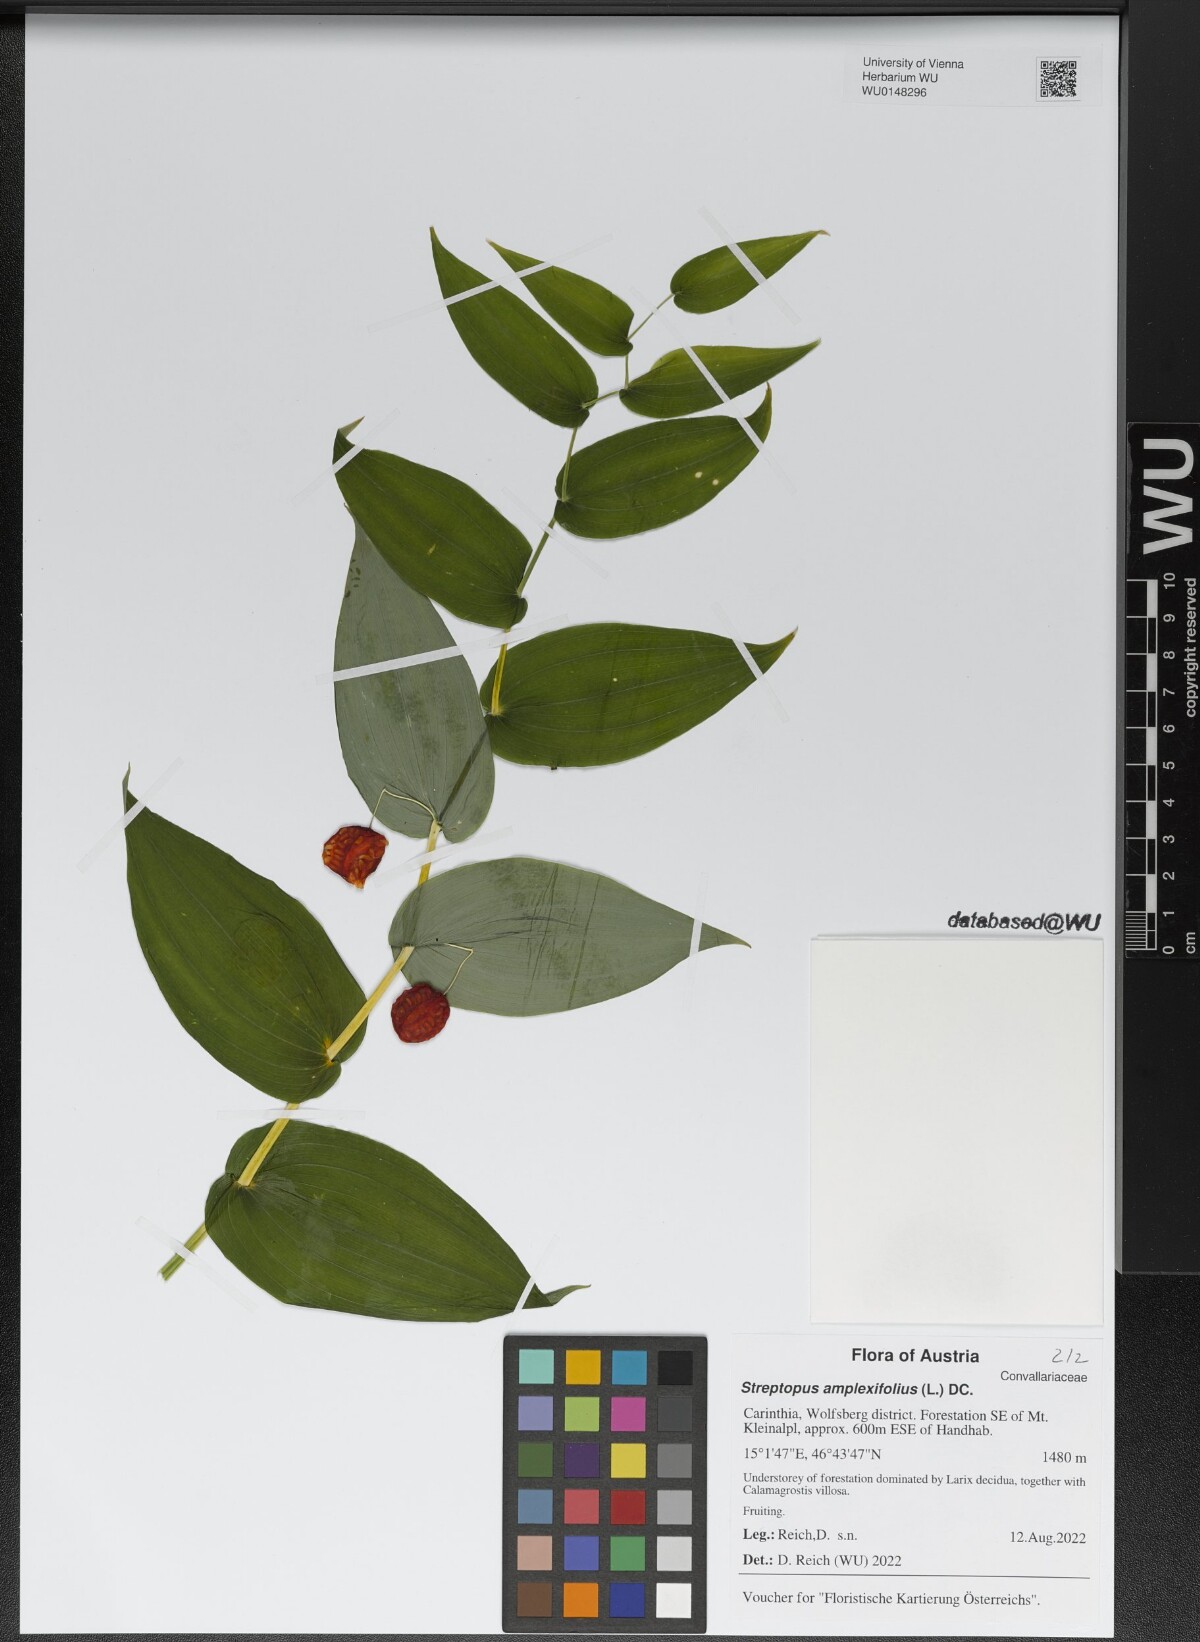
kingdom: Plantae
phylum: Tracheophyta
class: Liliopsida
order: Liliales
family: Liliaceae
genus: Streptopus
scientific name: Streptopus amplexifolius
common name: Clasp twisted stalk
